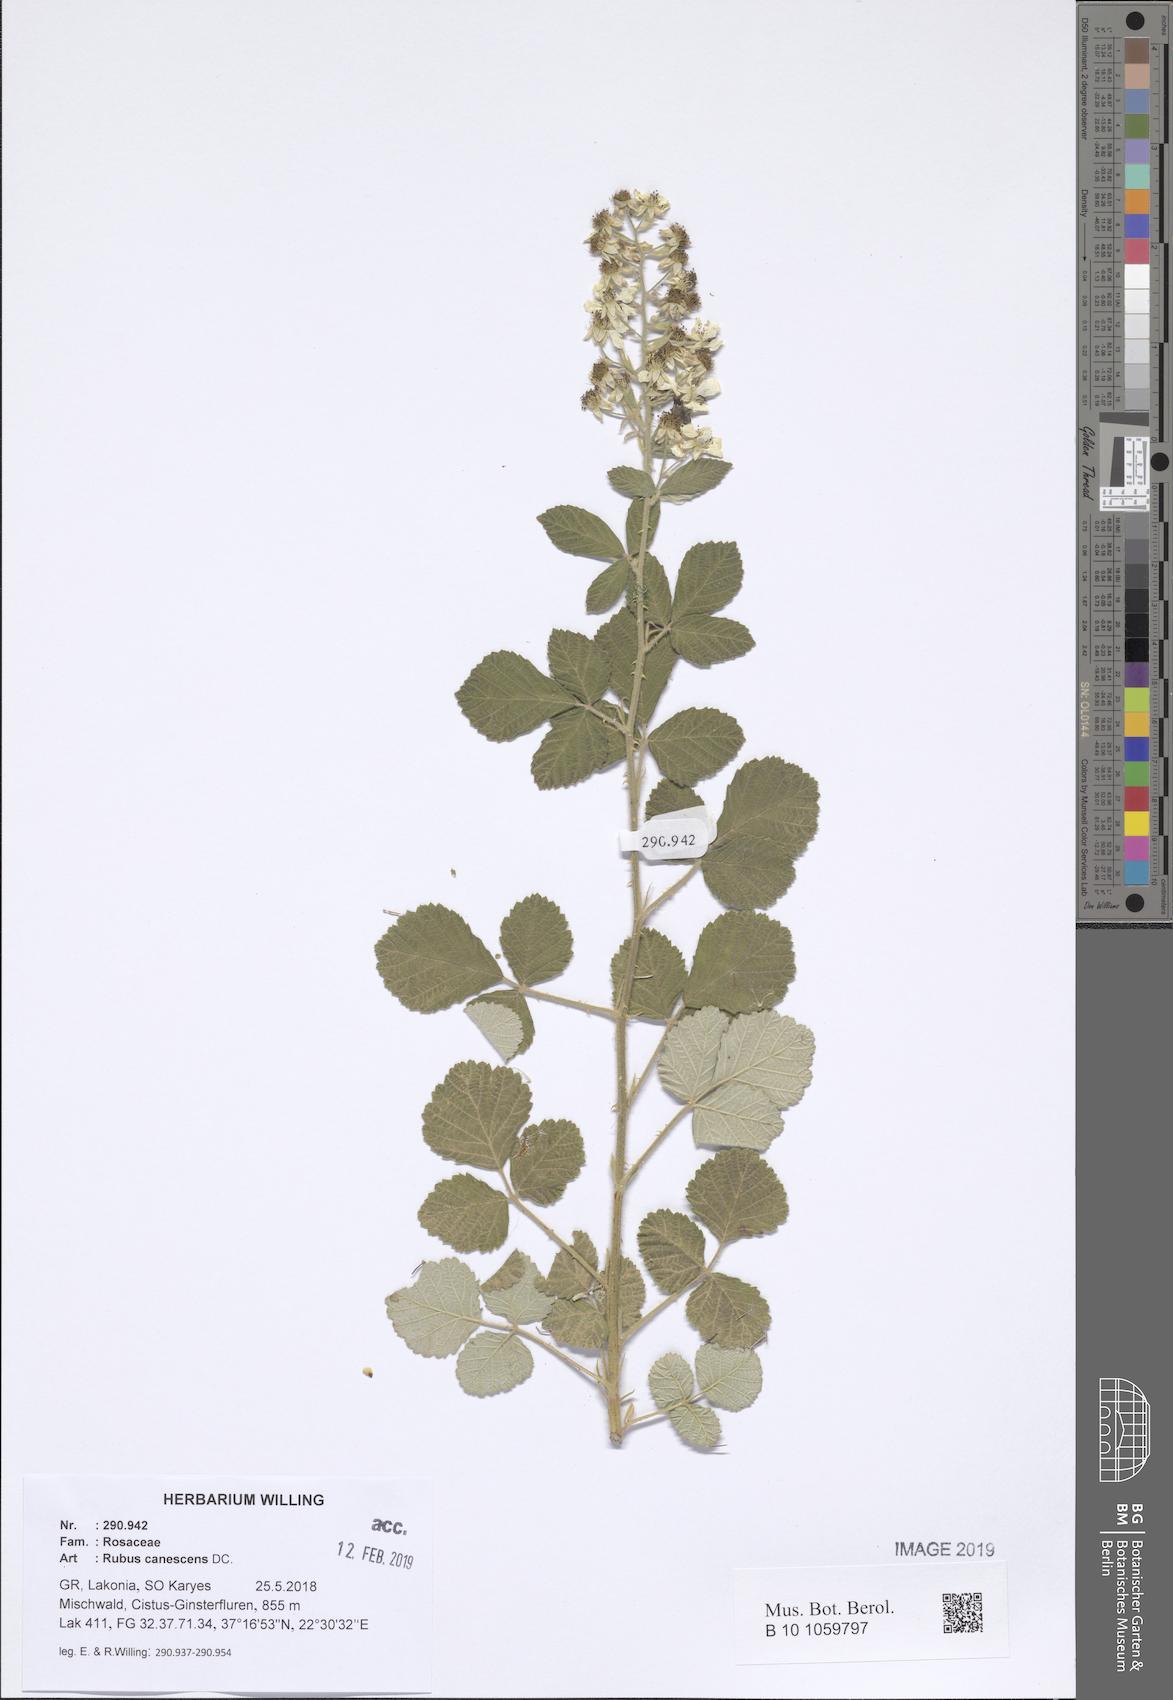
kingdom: Plantae
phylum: Tracheophyta
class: Magnoliopsida
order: Rosales
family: Rosaceae
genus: Rubus
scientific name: Rubus canescens
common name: Wooly blackberry
